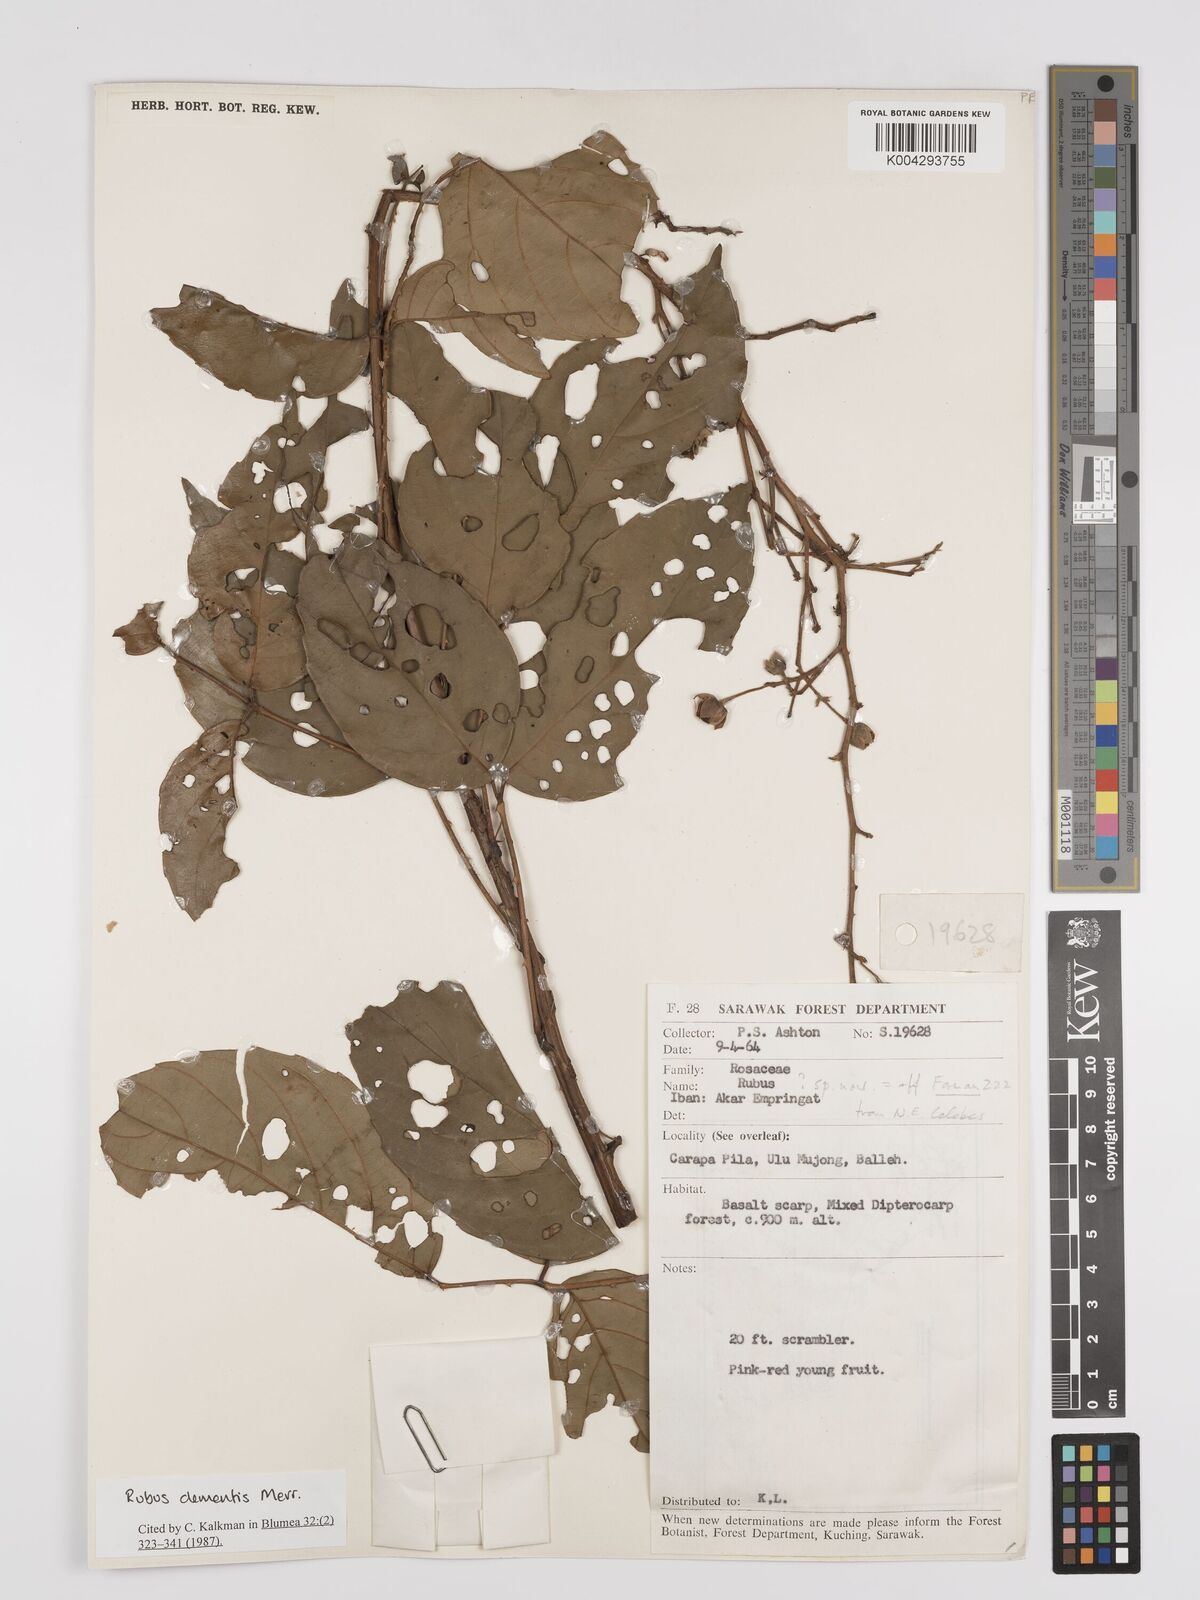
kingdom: Plantae
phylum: Tracheophyta
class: Magnoliopsida
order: Rosales
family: Rosaceae
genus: Rubus
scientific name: Rubus clementis
